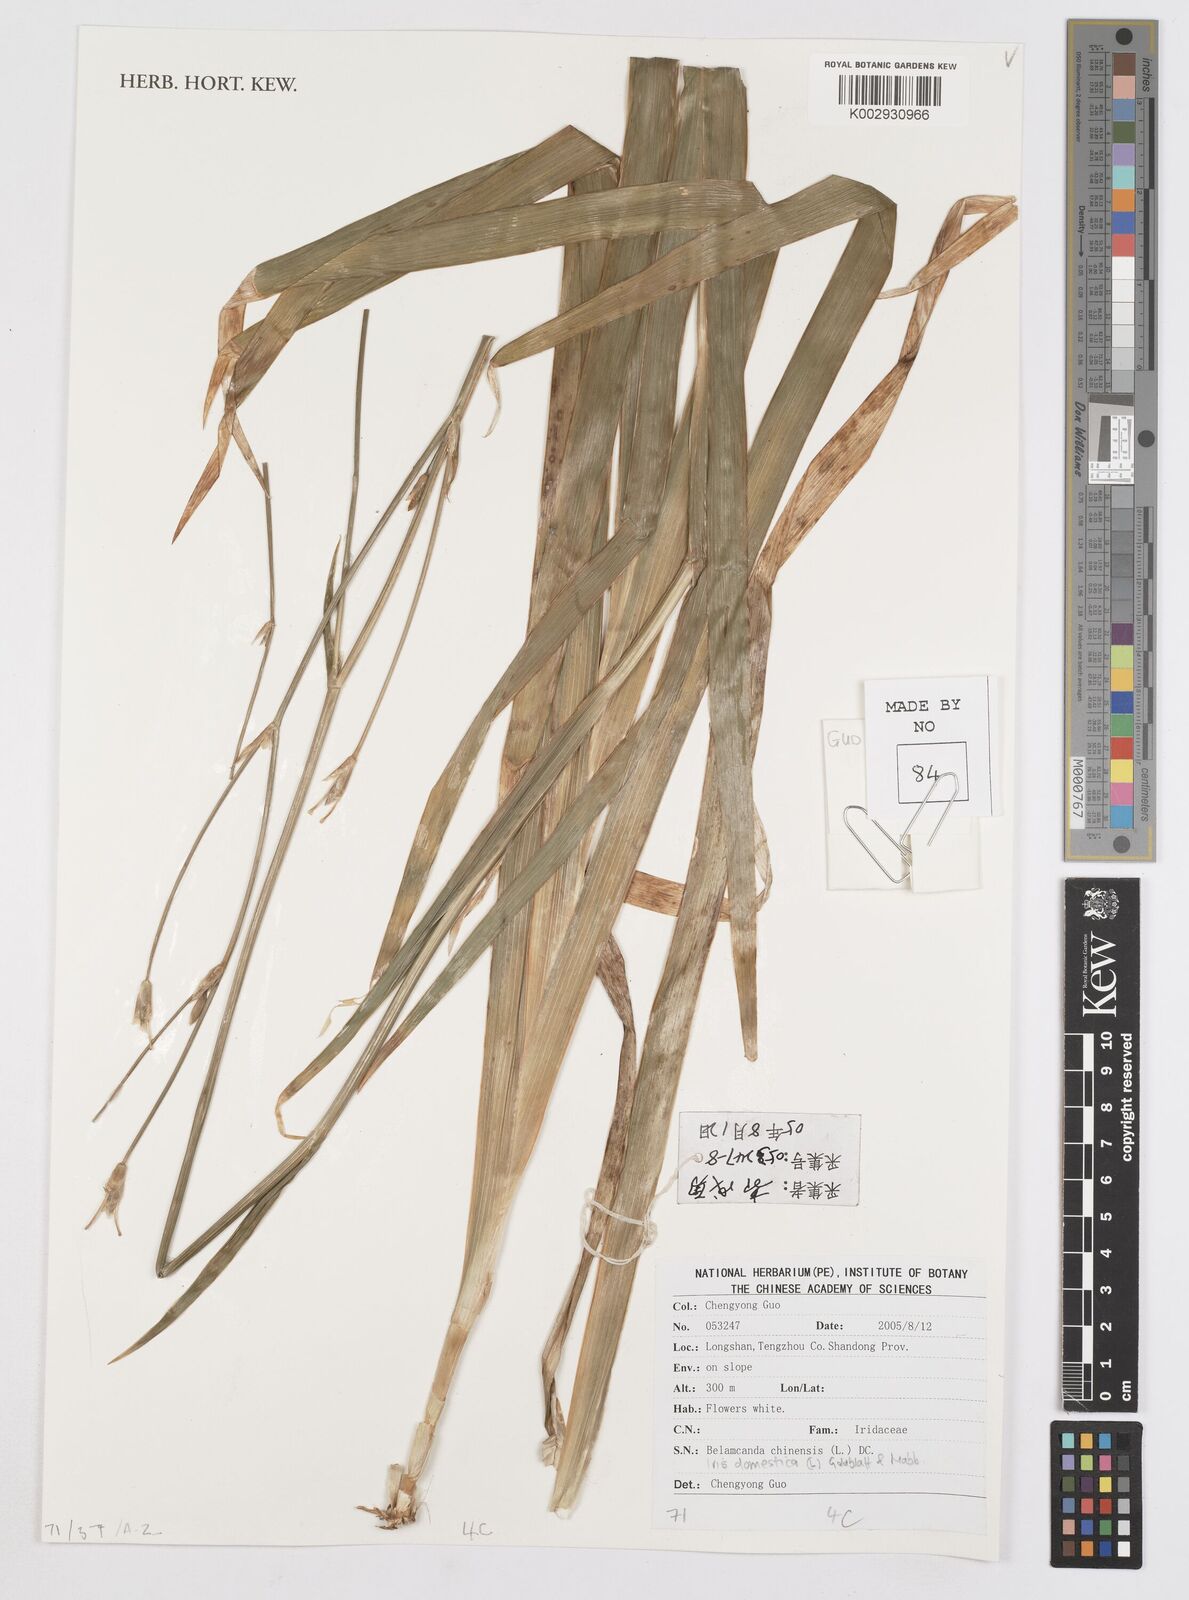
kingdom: Plantae
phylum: Tracheophyta
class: Liliopsida
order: Asparagales
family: Iridaceae
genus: Iris
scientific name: Iris domestica
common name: Belamcanda
